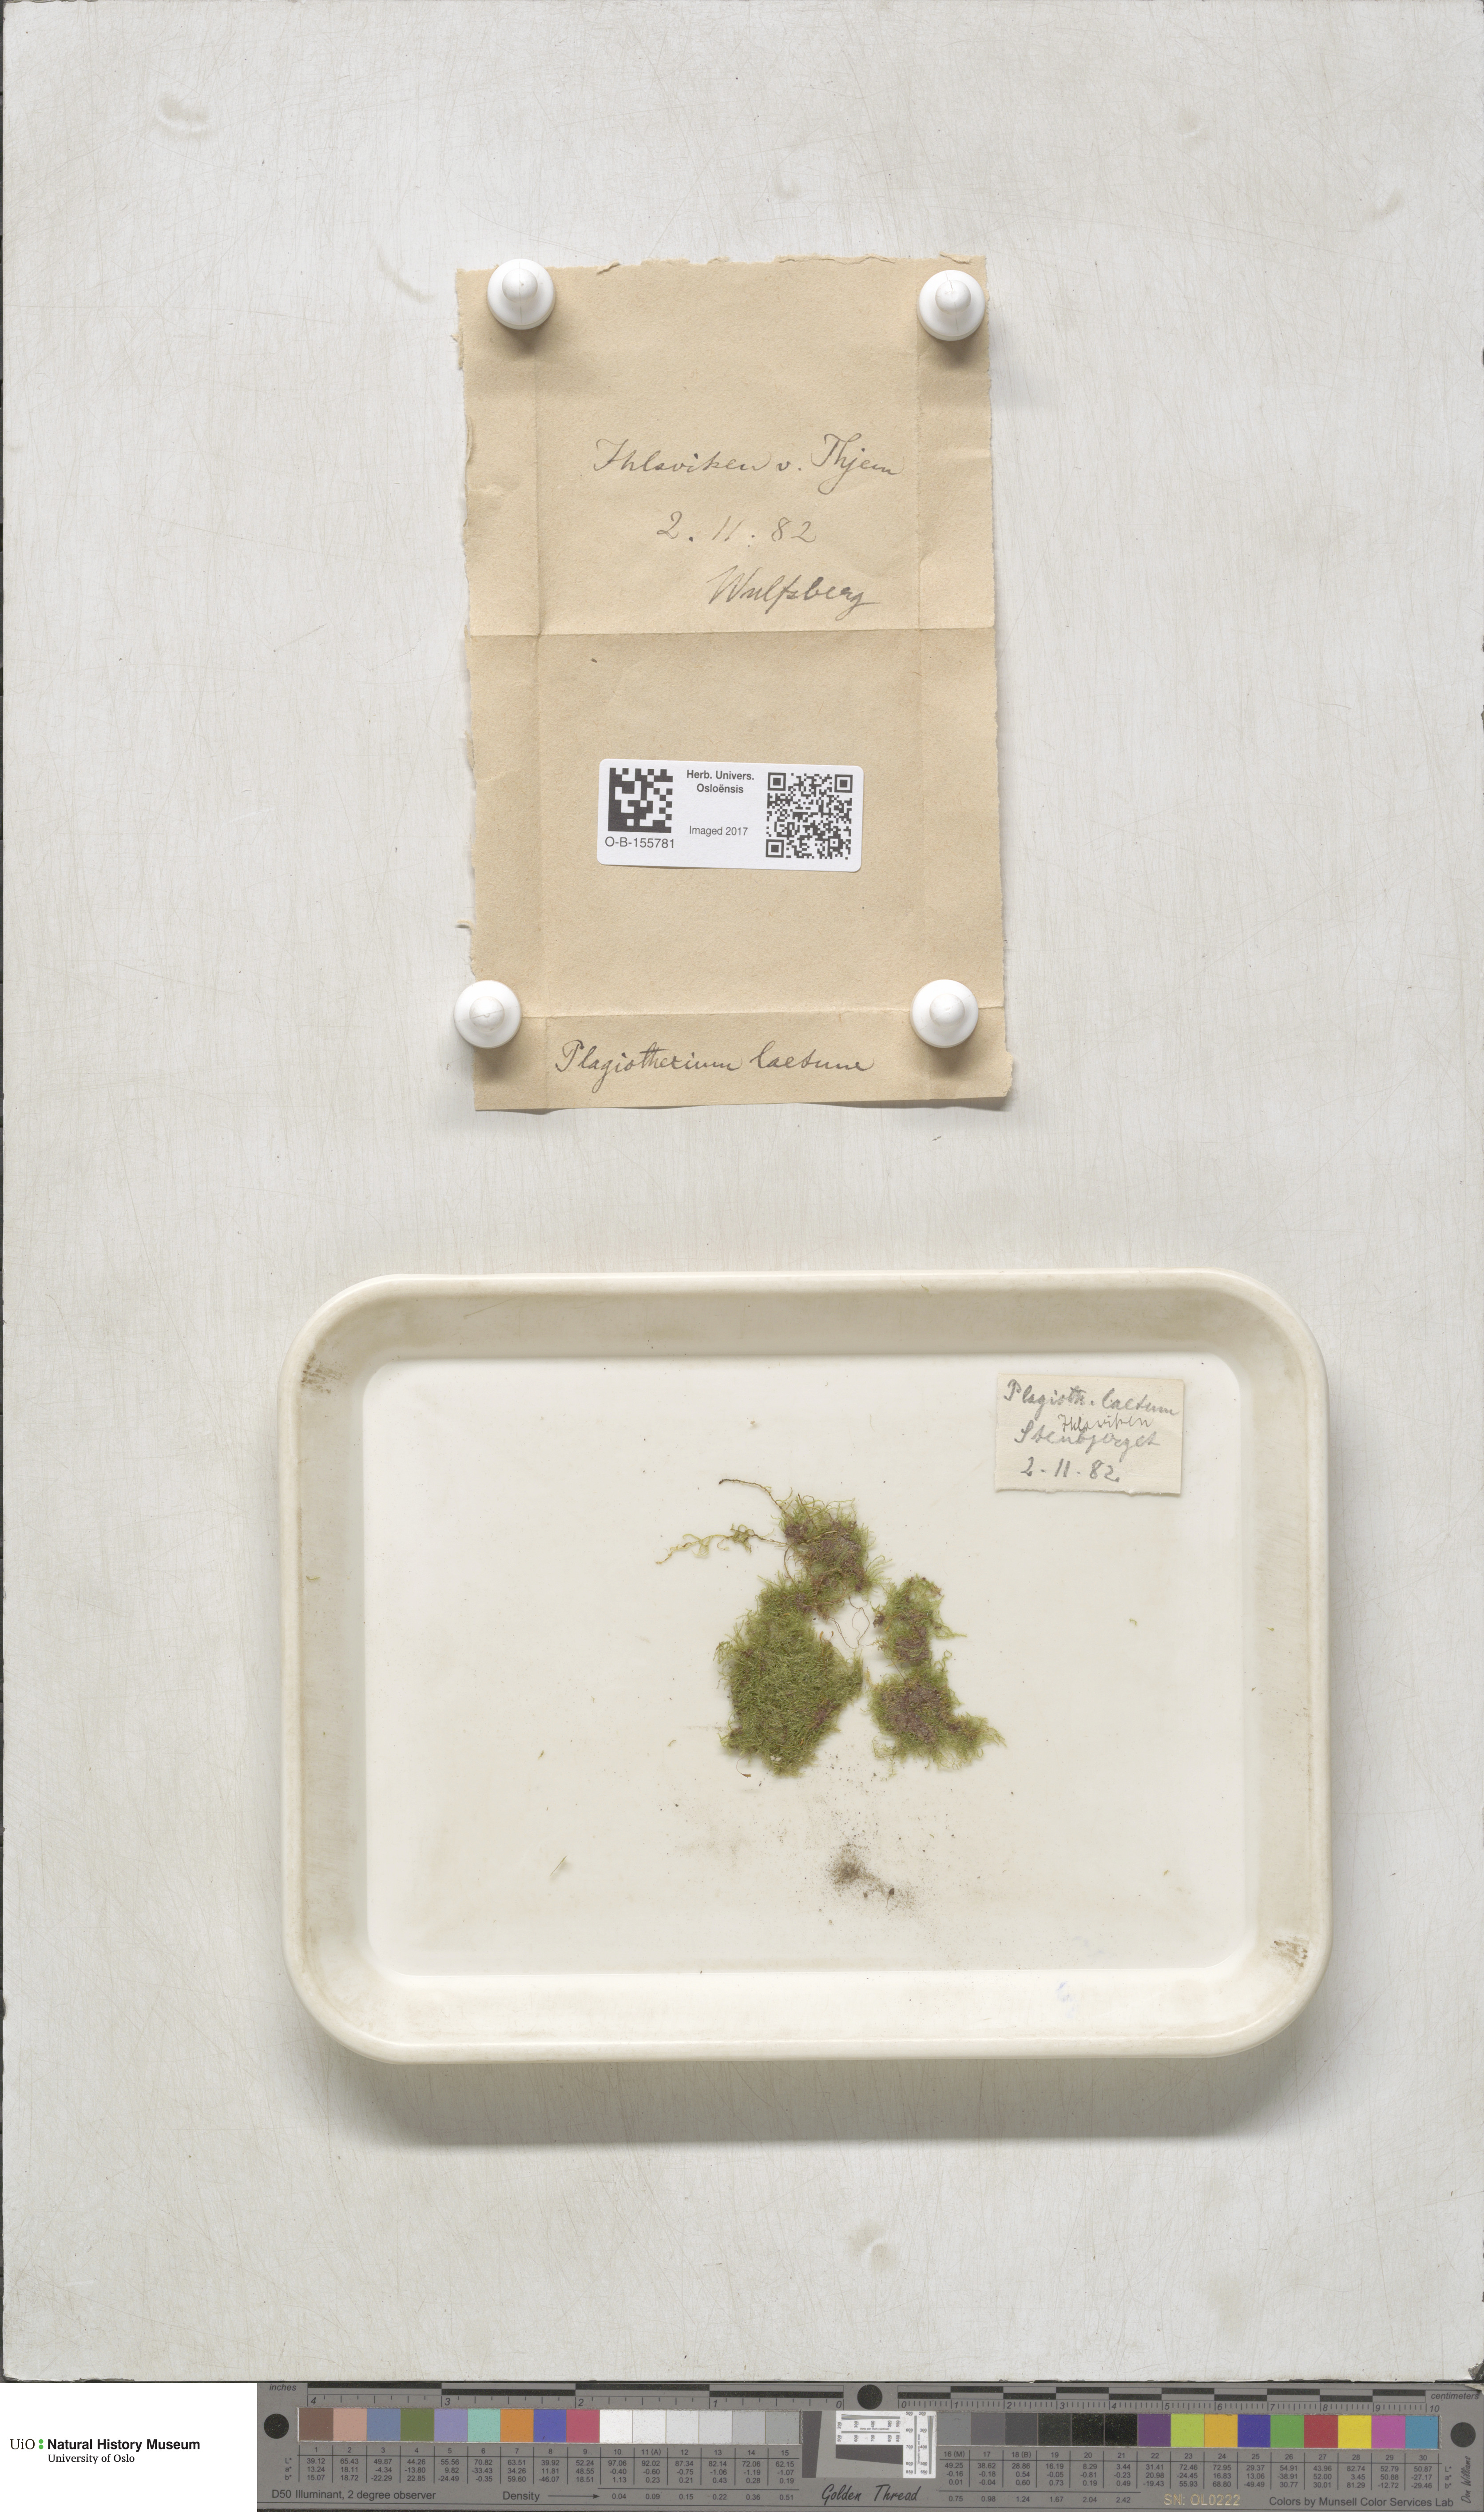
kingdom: Plantae
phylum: Bryophyta
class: Bryopsida
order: Hypnales
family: Plagiotheciaceae
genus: Plagiothecium
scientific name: Plagiothecium laetum
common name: Bright silk moss
